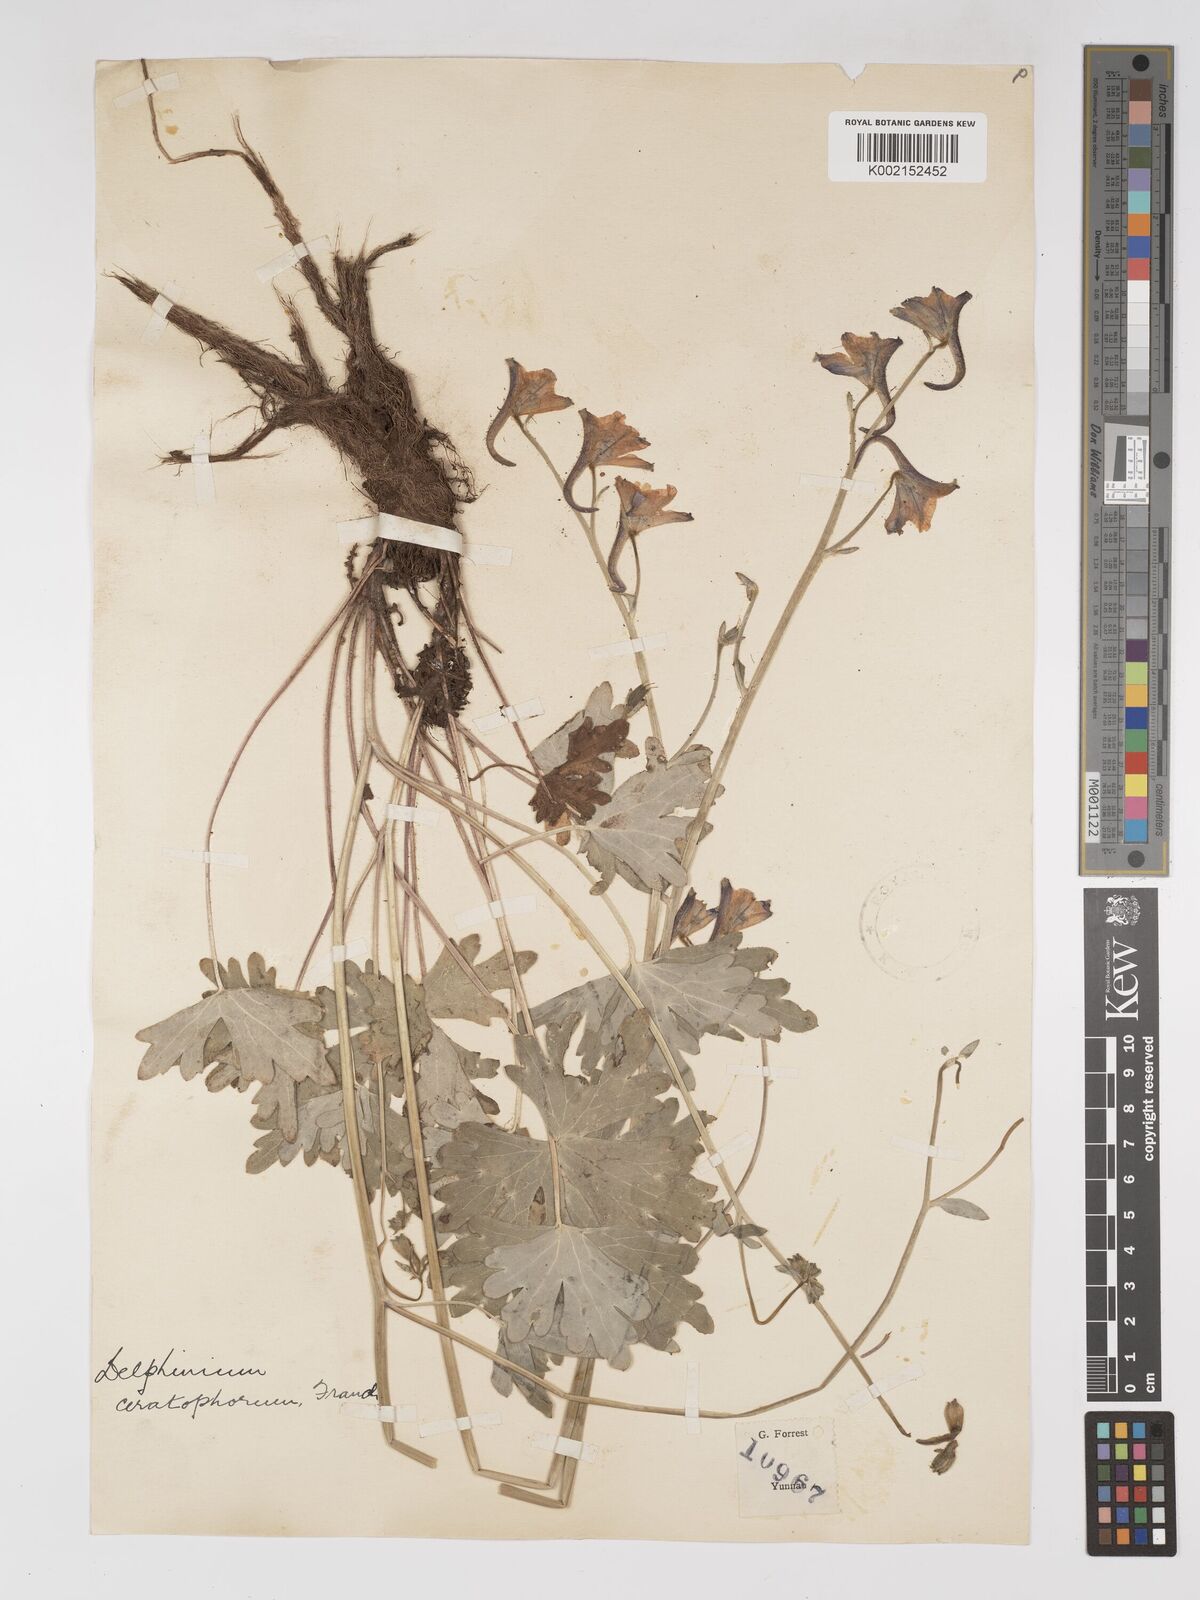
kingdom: Plantae
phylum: Tracheophyta
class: Magnoliopsida
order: Ranunculales
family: Ranunculaceae
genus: Delphinium
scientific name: Delphinium ceratophorum
